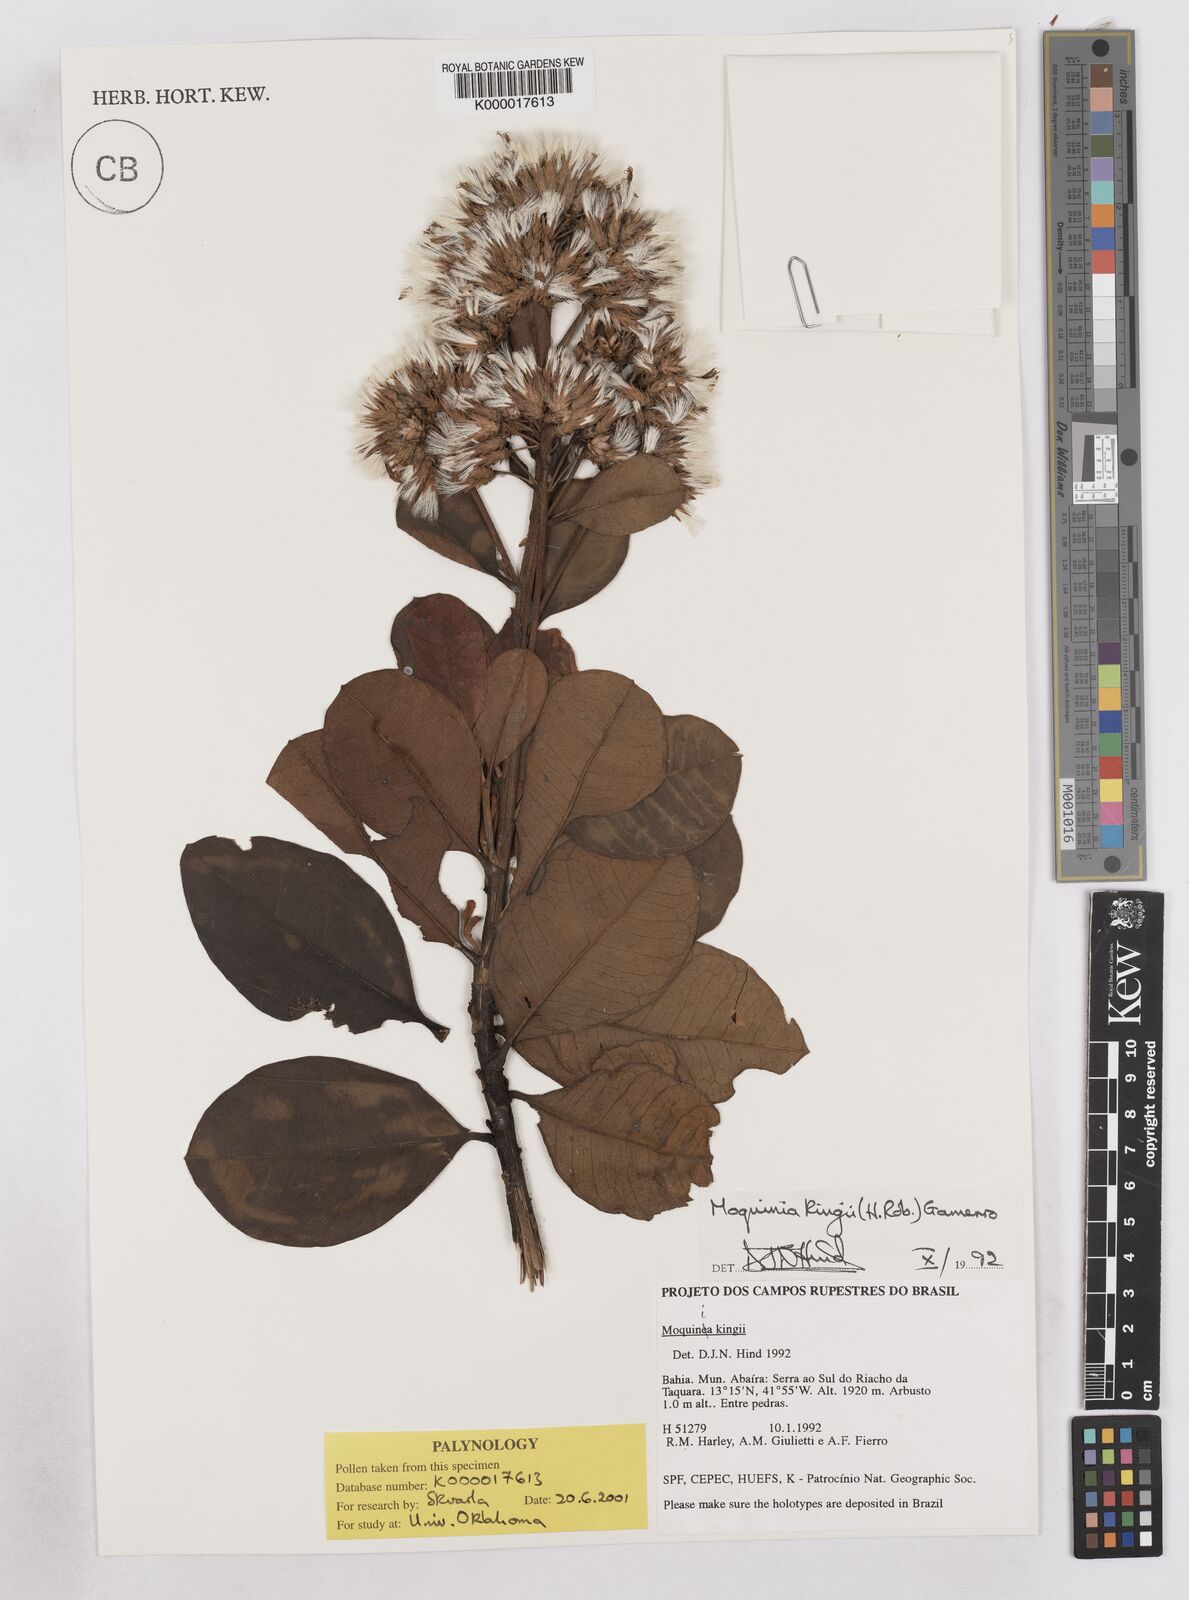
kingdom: Plantae
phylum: Tracheophyta
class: Magnoliopsida
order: Asterales
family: Asteraceae
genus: Pseudostifftia
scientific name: Pseudostifftia kingii
